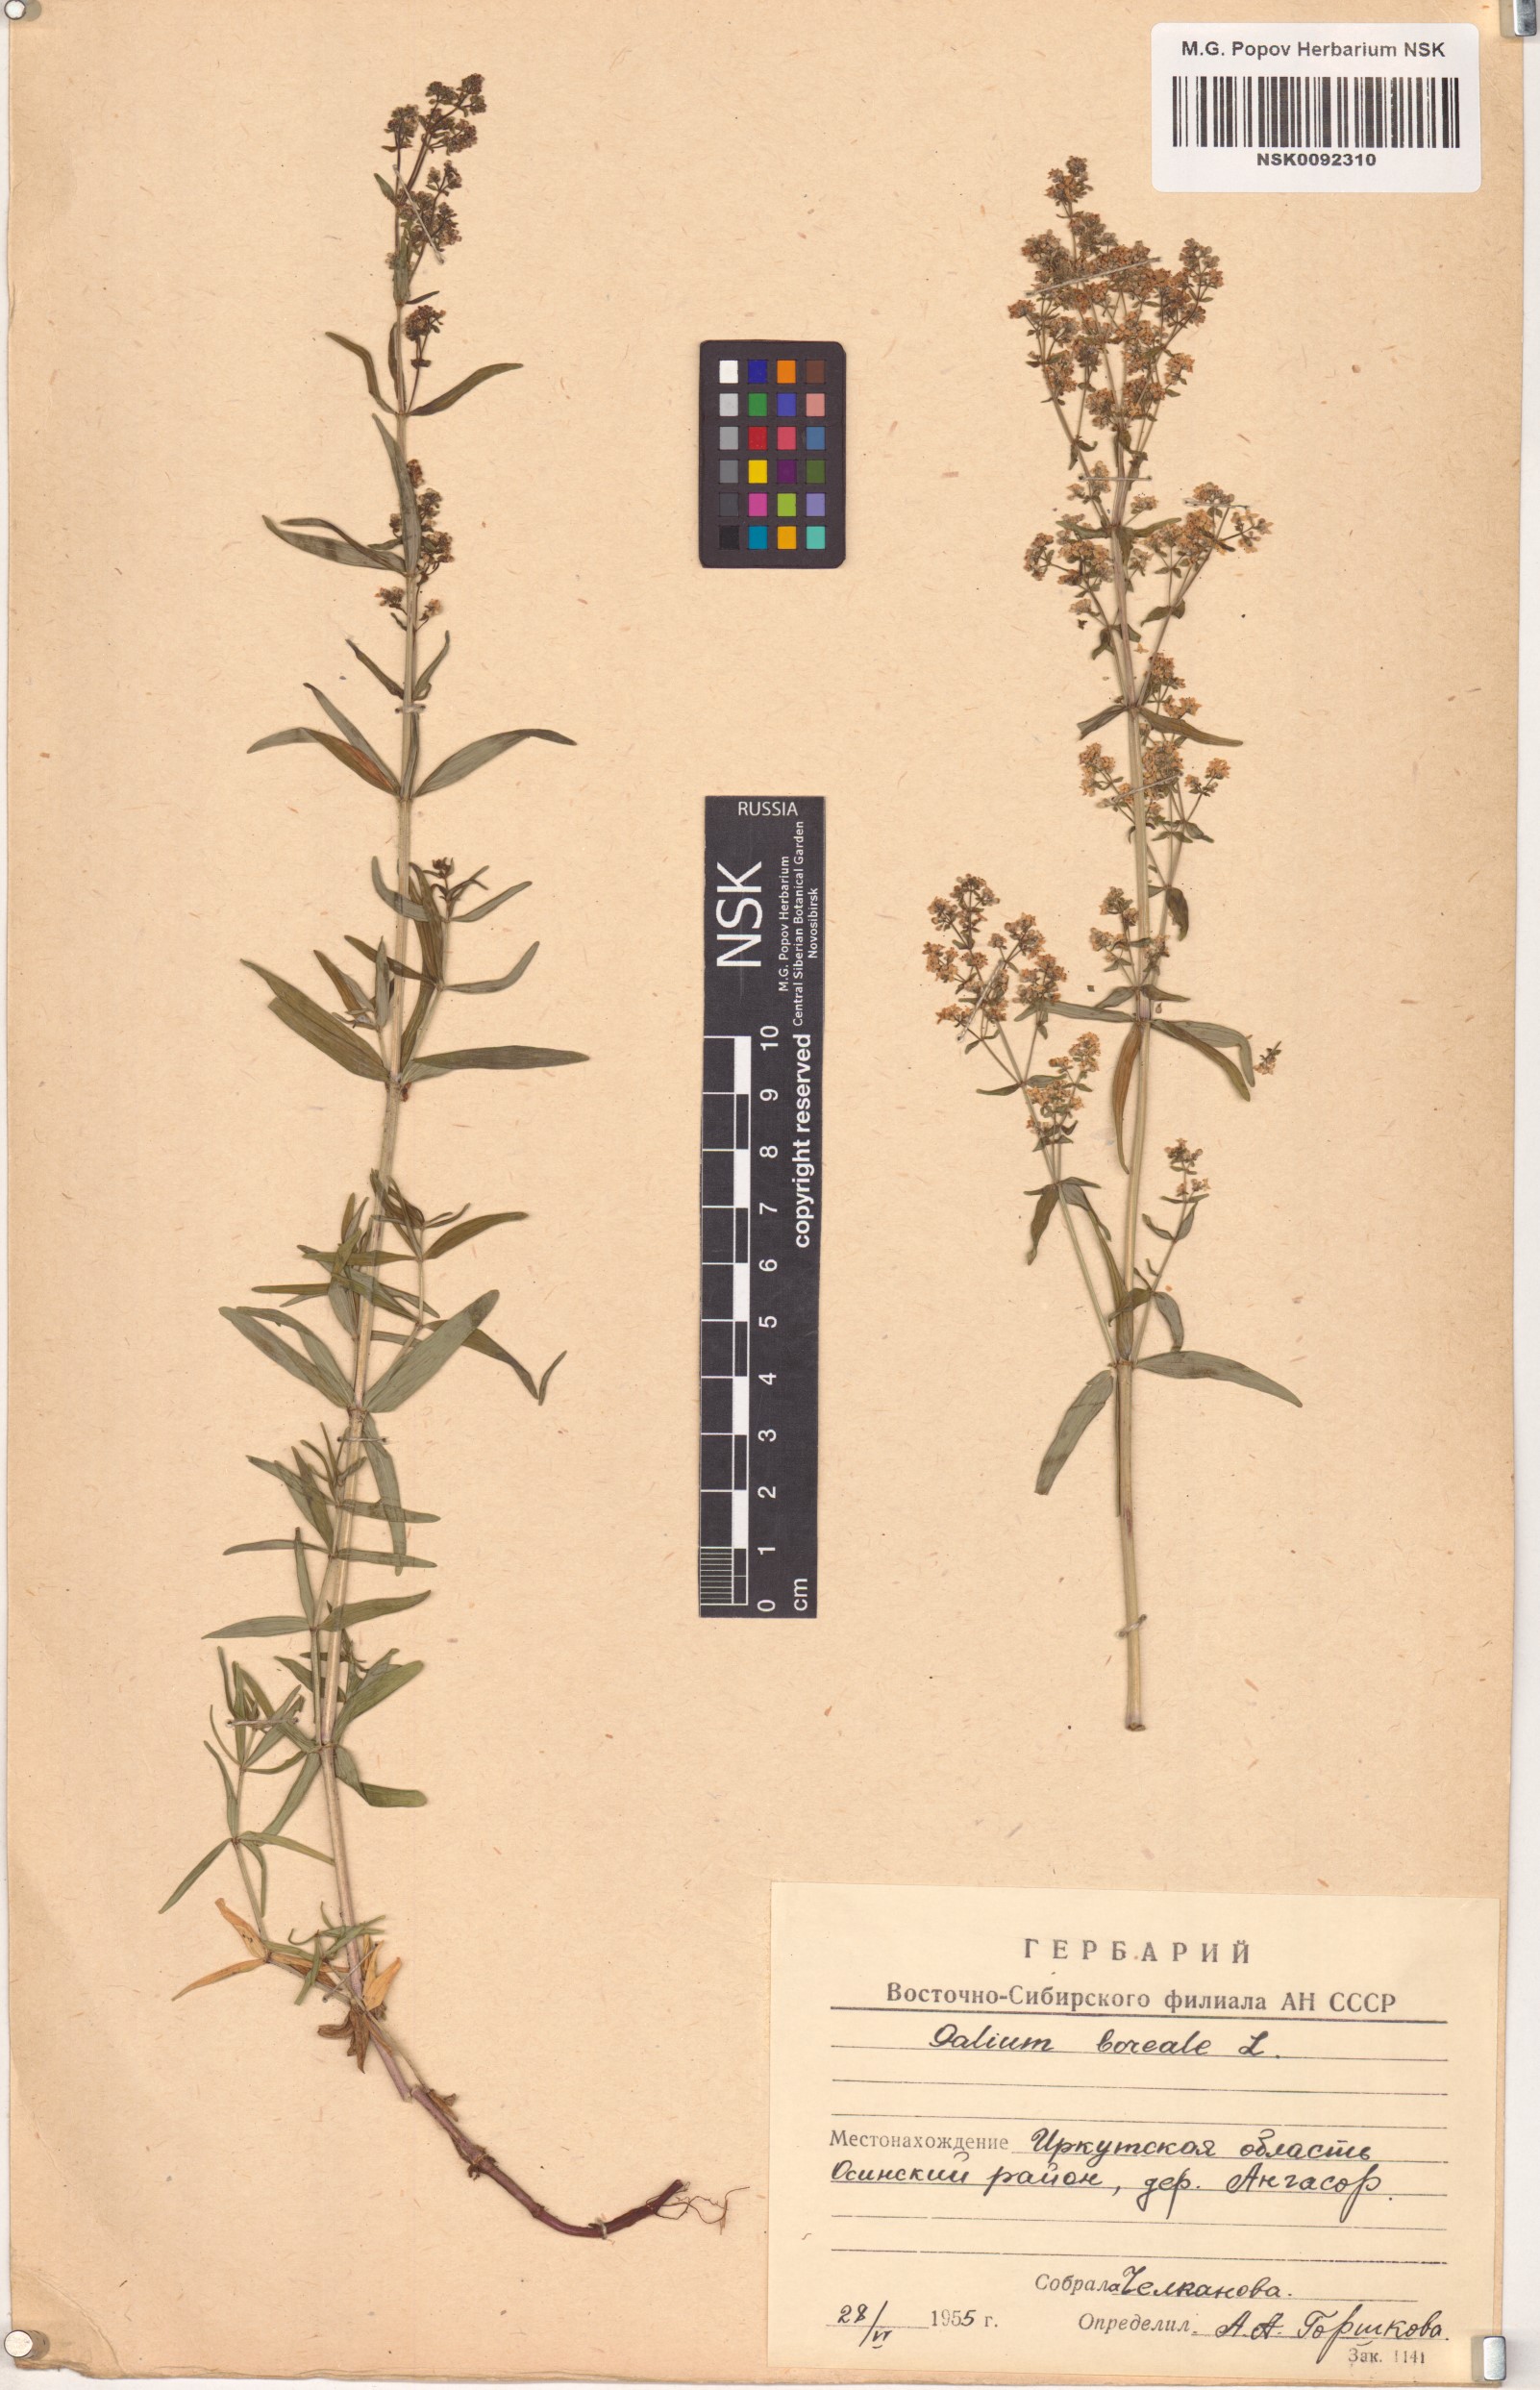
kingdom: Plantae
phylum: Tracheophyta
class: Magnoliopsida
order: Gentianales
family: Rubiaceae
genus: Galium
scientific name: Galium boreale
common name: Northern bedstraw
